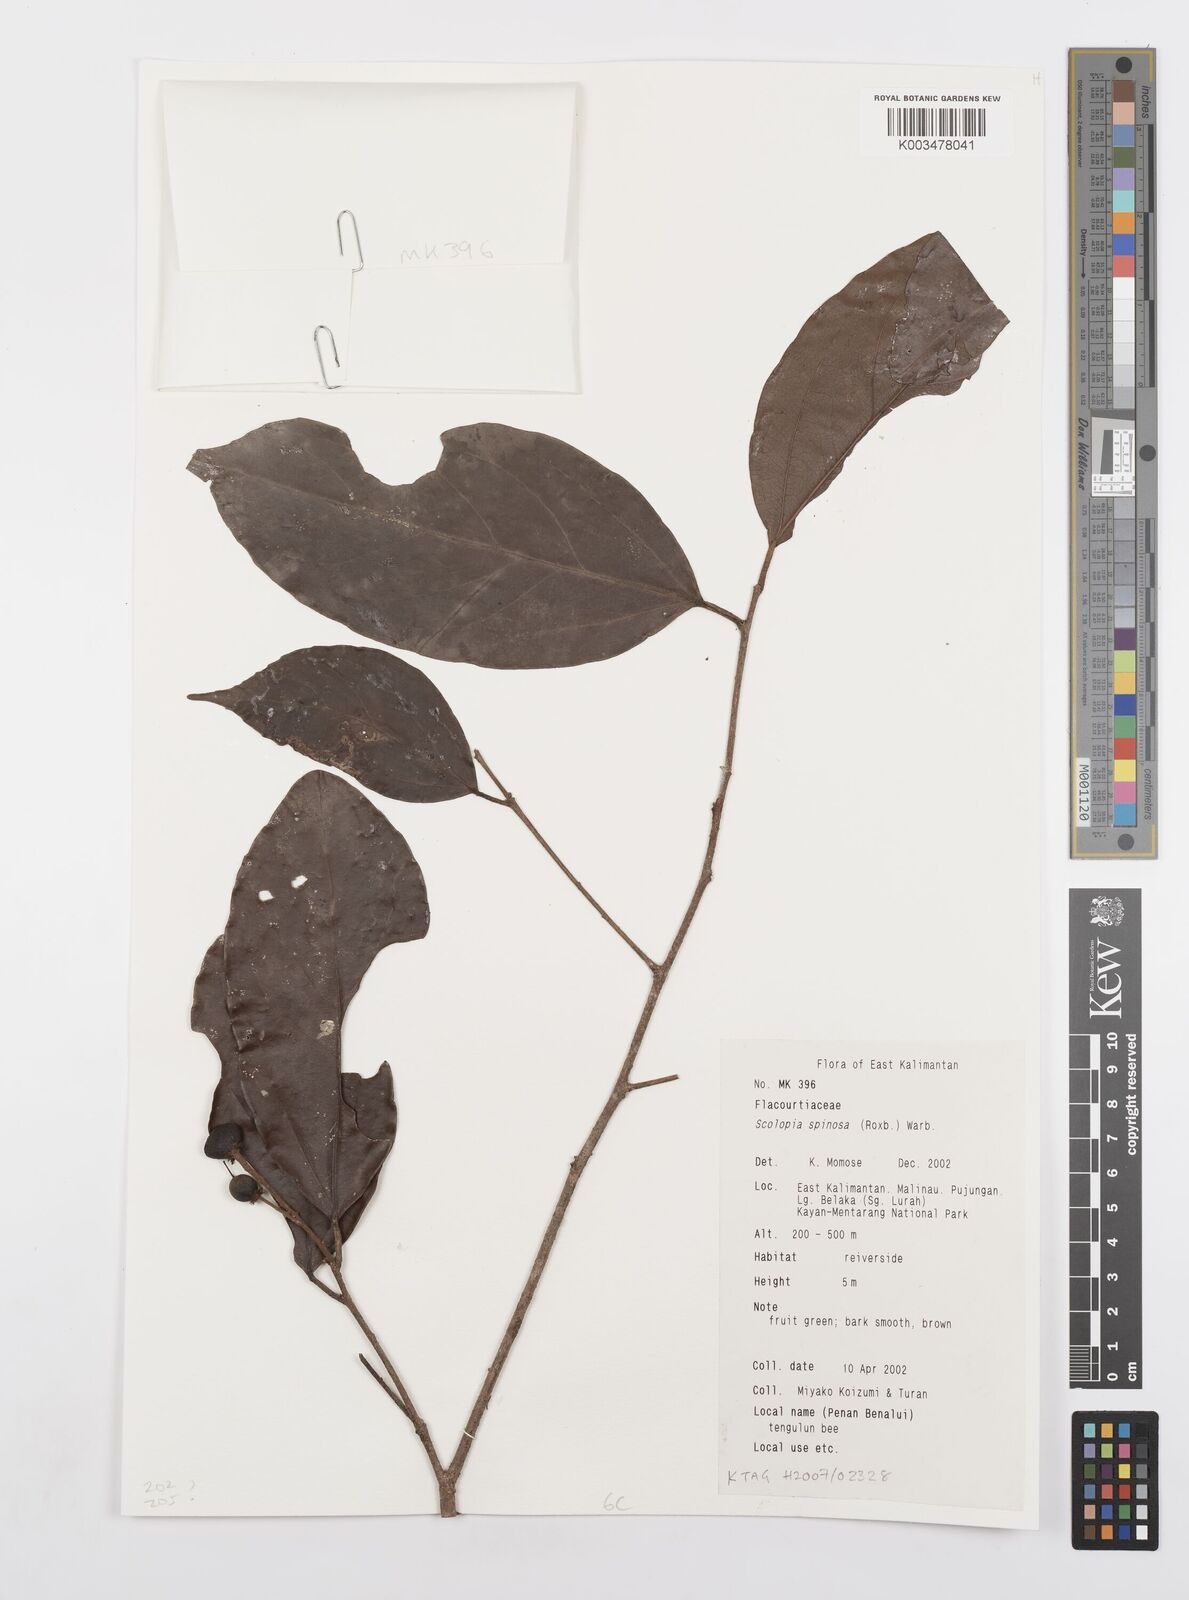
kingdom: Plantae
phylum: Tracheophyta
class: Magnoliopsida
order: Malpighiales
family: Salicaceae
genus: Scolopia
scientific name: Scolopia spinosa
